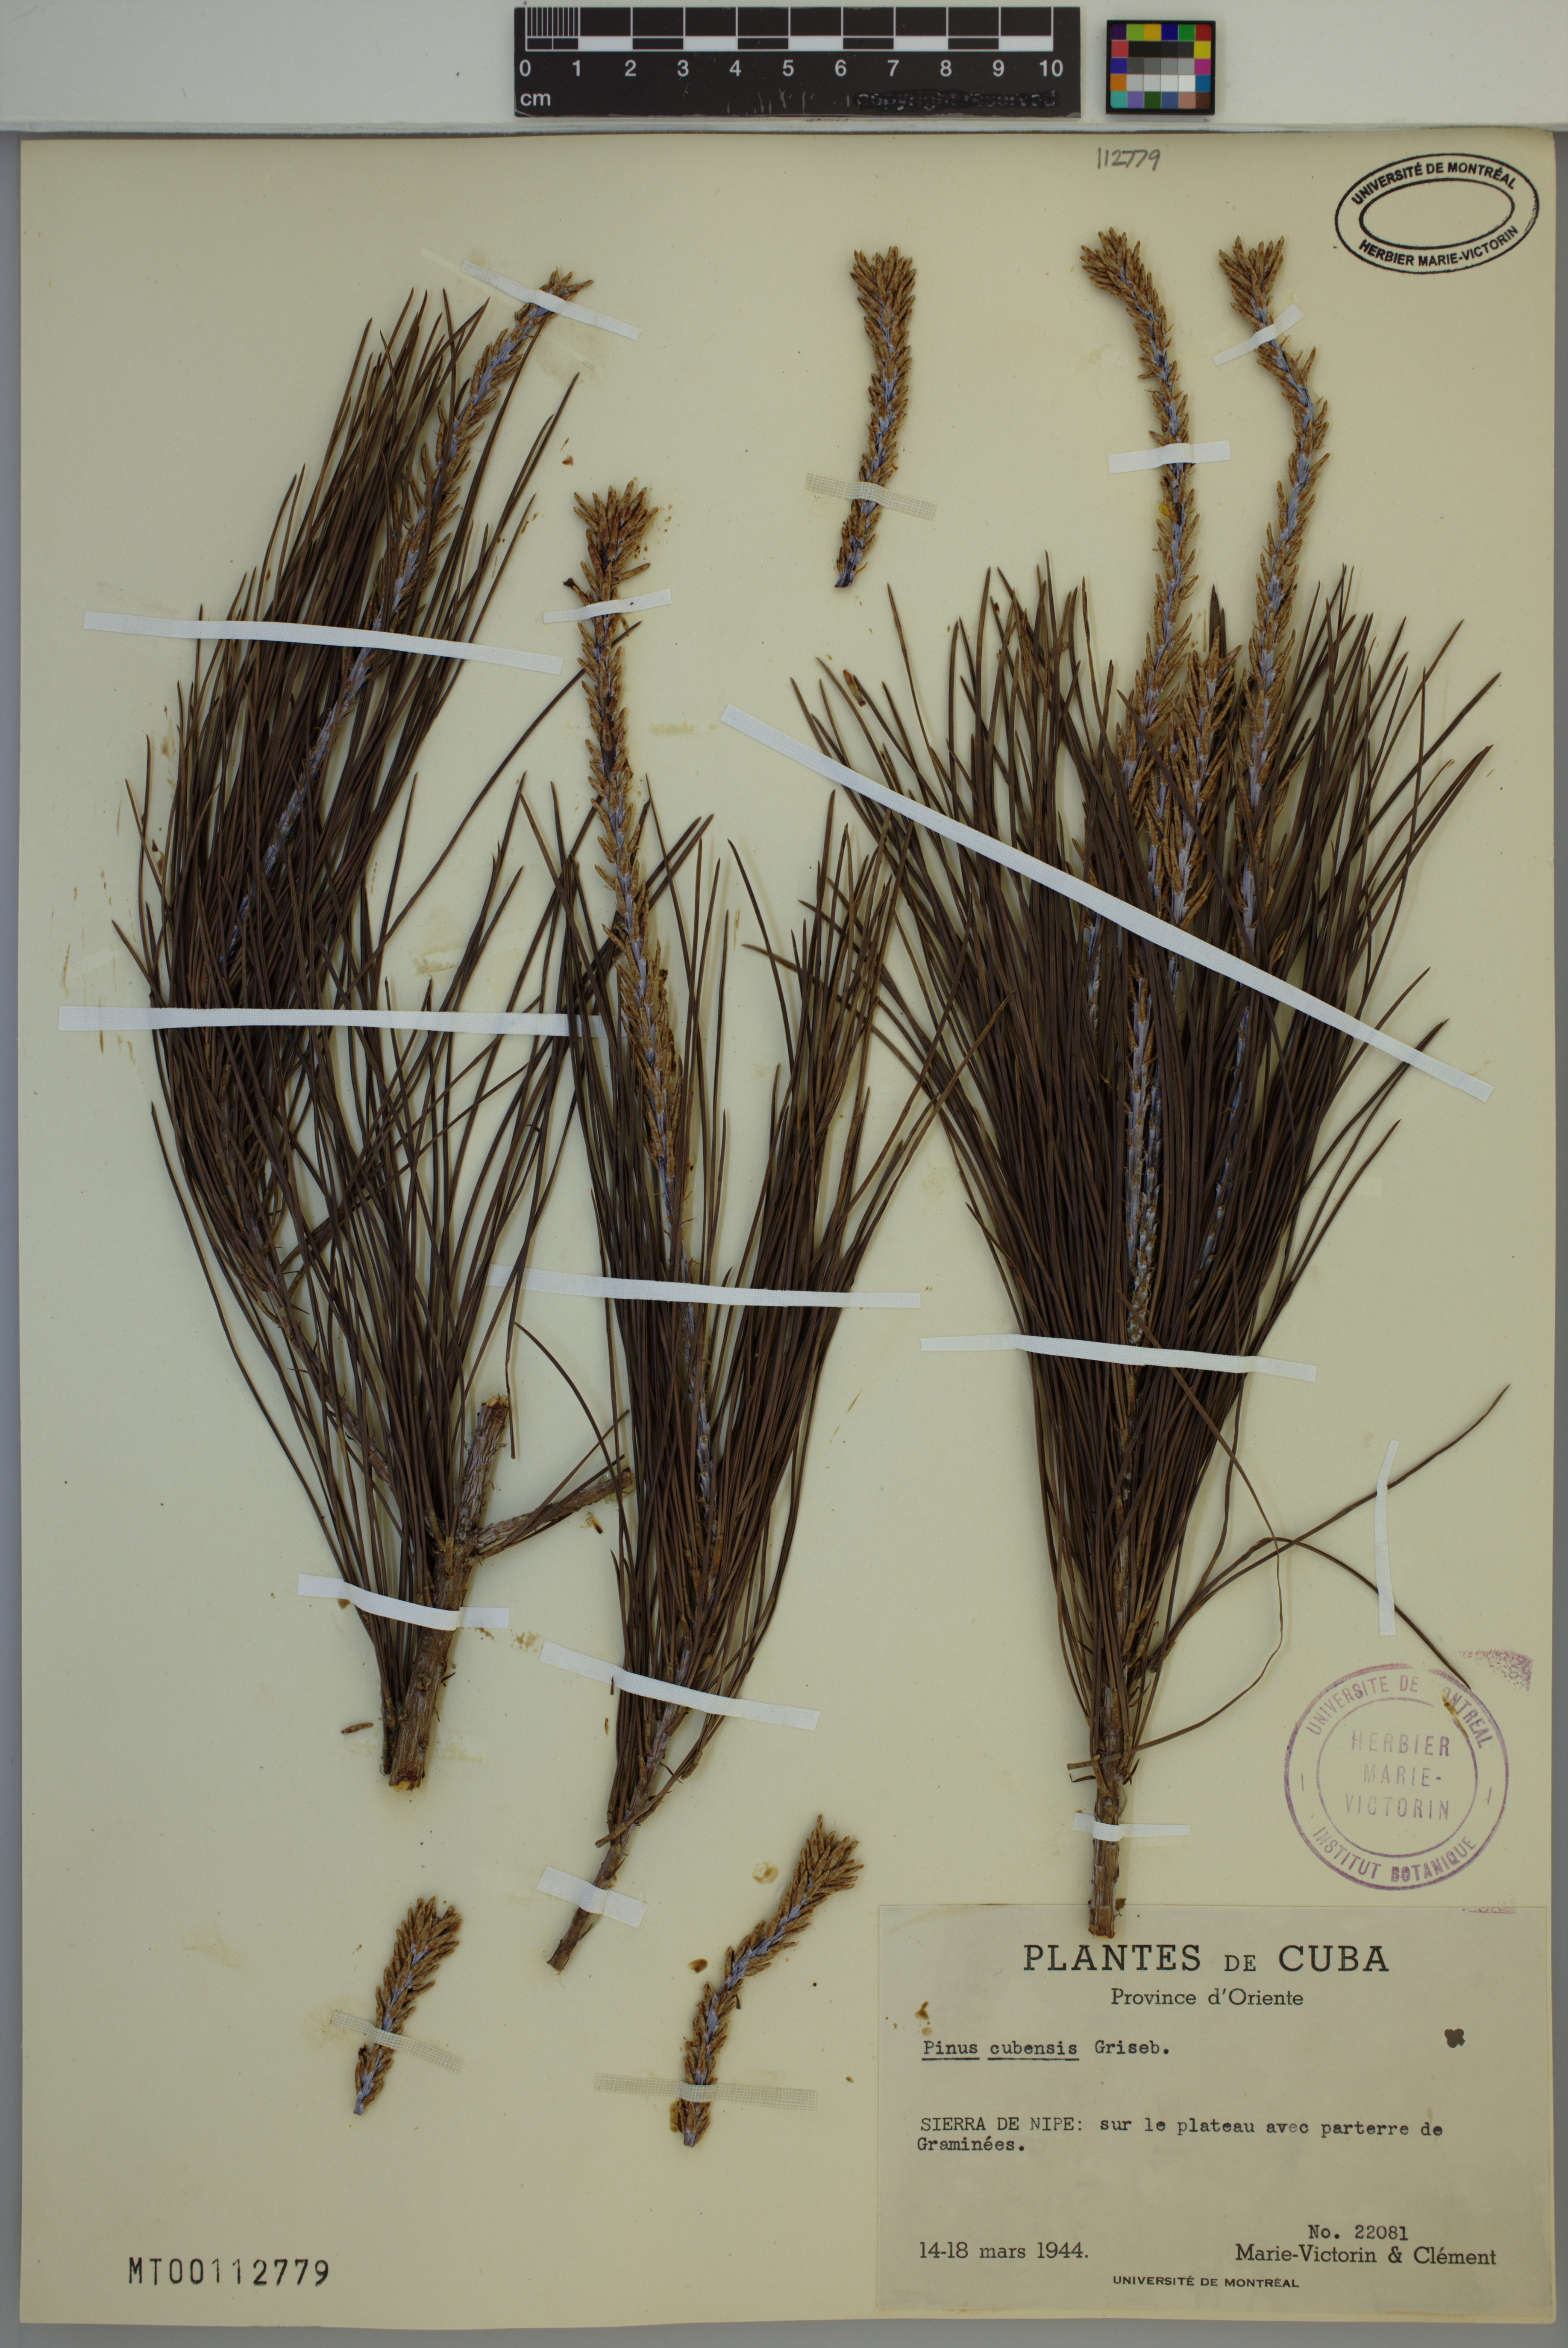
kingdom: Plantae
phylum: Tracheophyta
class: Pinopsida
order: Pinales
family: Pinaceae
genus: Pinus
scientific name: Pinus cubensis
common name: Cuban pine
